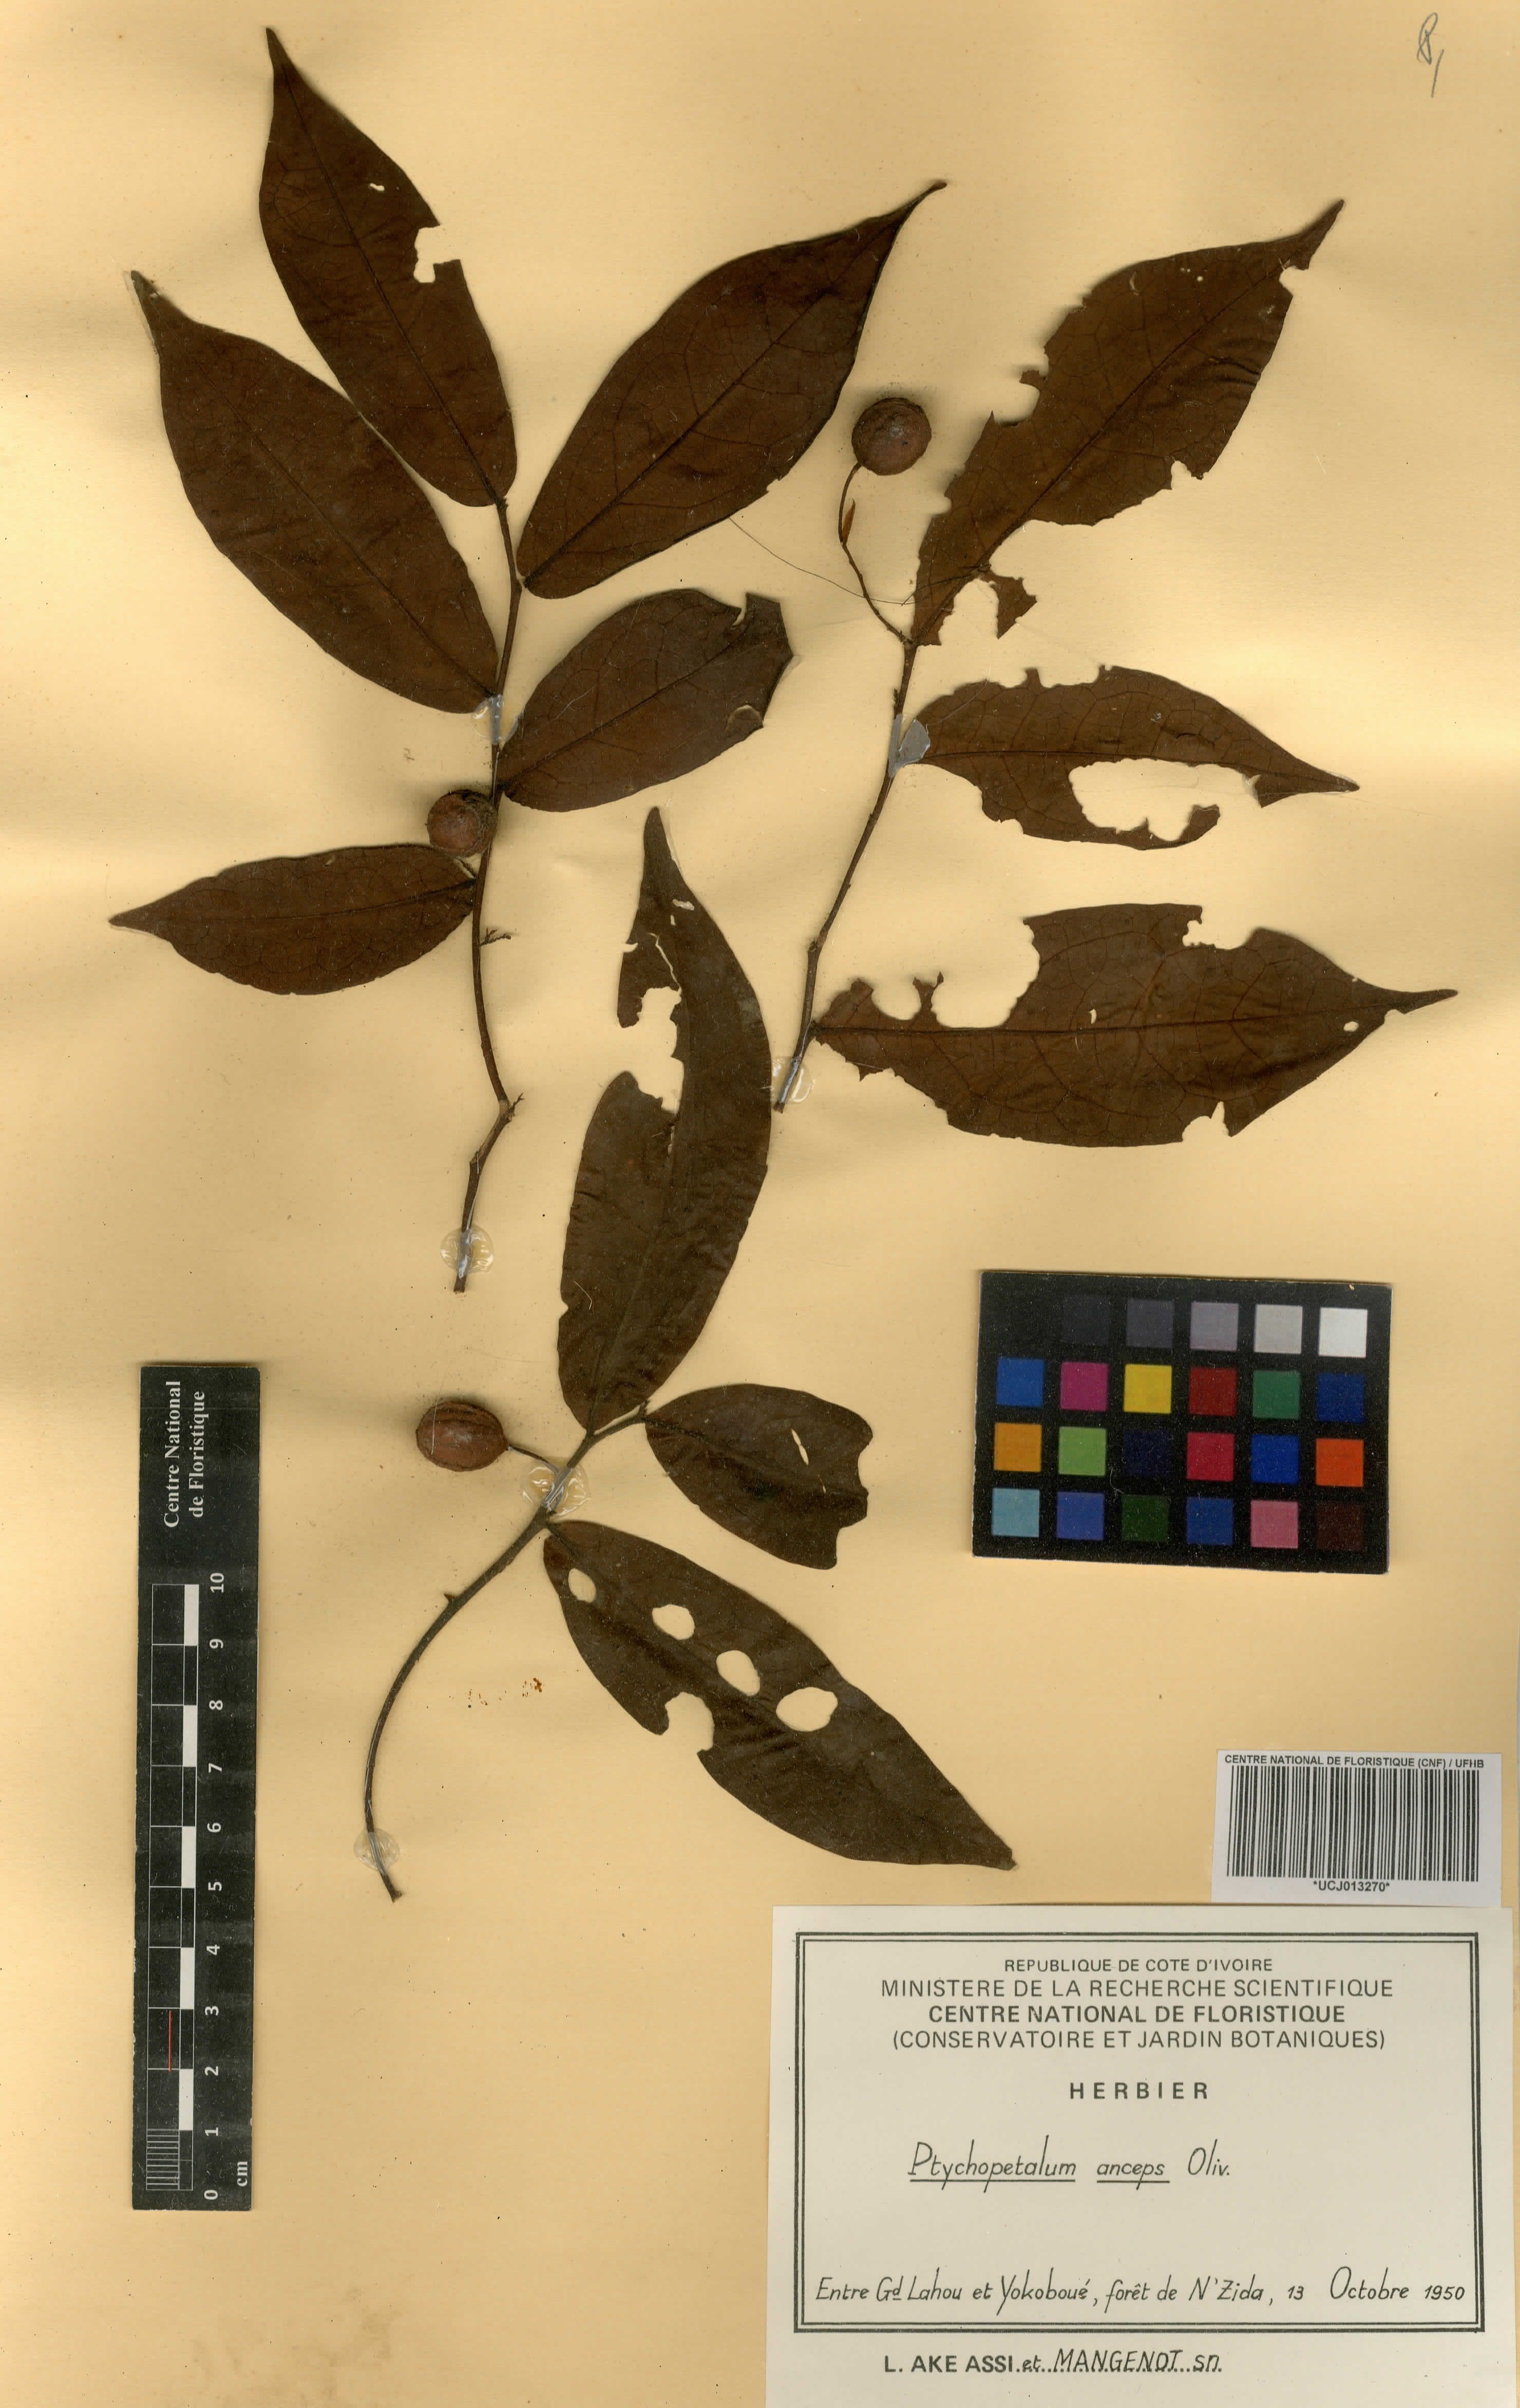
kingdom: Plantae
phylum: Tracheophyta
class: Magnoliopsida
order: Santalales
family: Olacaceae
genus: Ptychopetalum
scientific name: Ptychopetalum anceps
